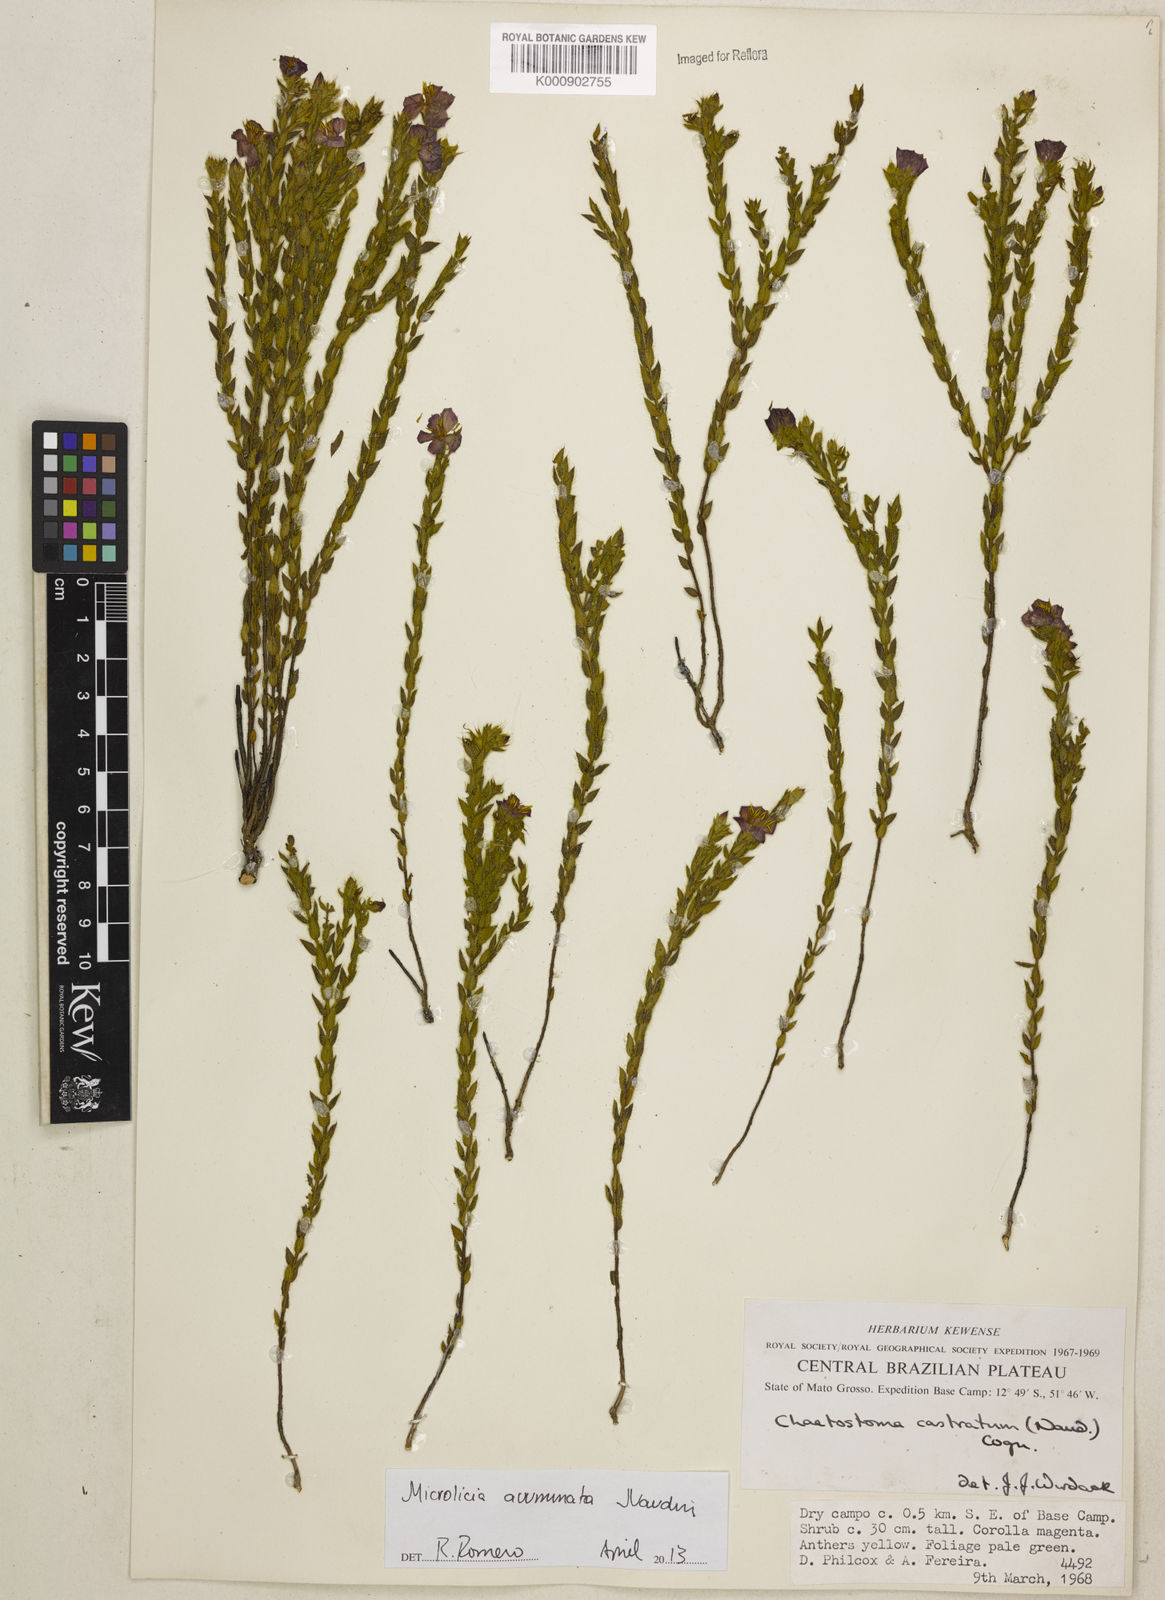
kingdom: Plantae
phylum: Tracheophyta
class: Magnoliopsida
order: Myrtales
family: Melastomataceae
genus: Microlicia
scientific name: Microlicia
